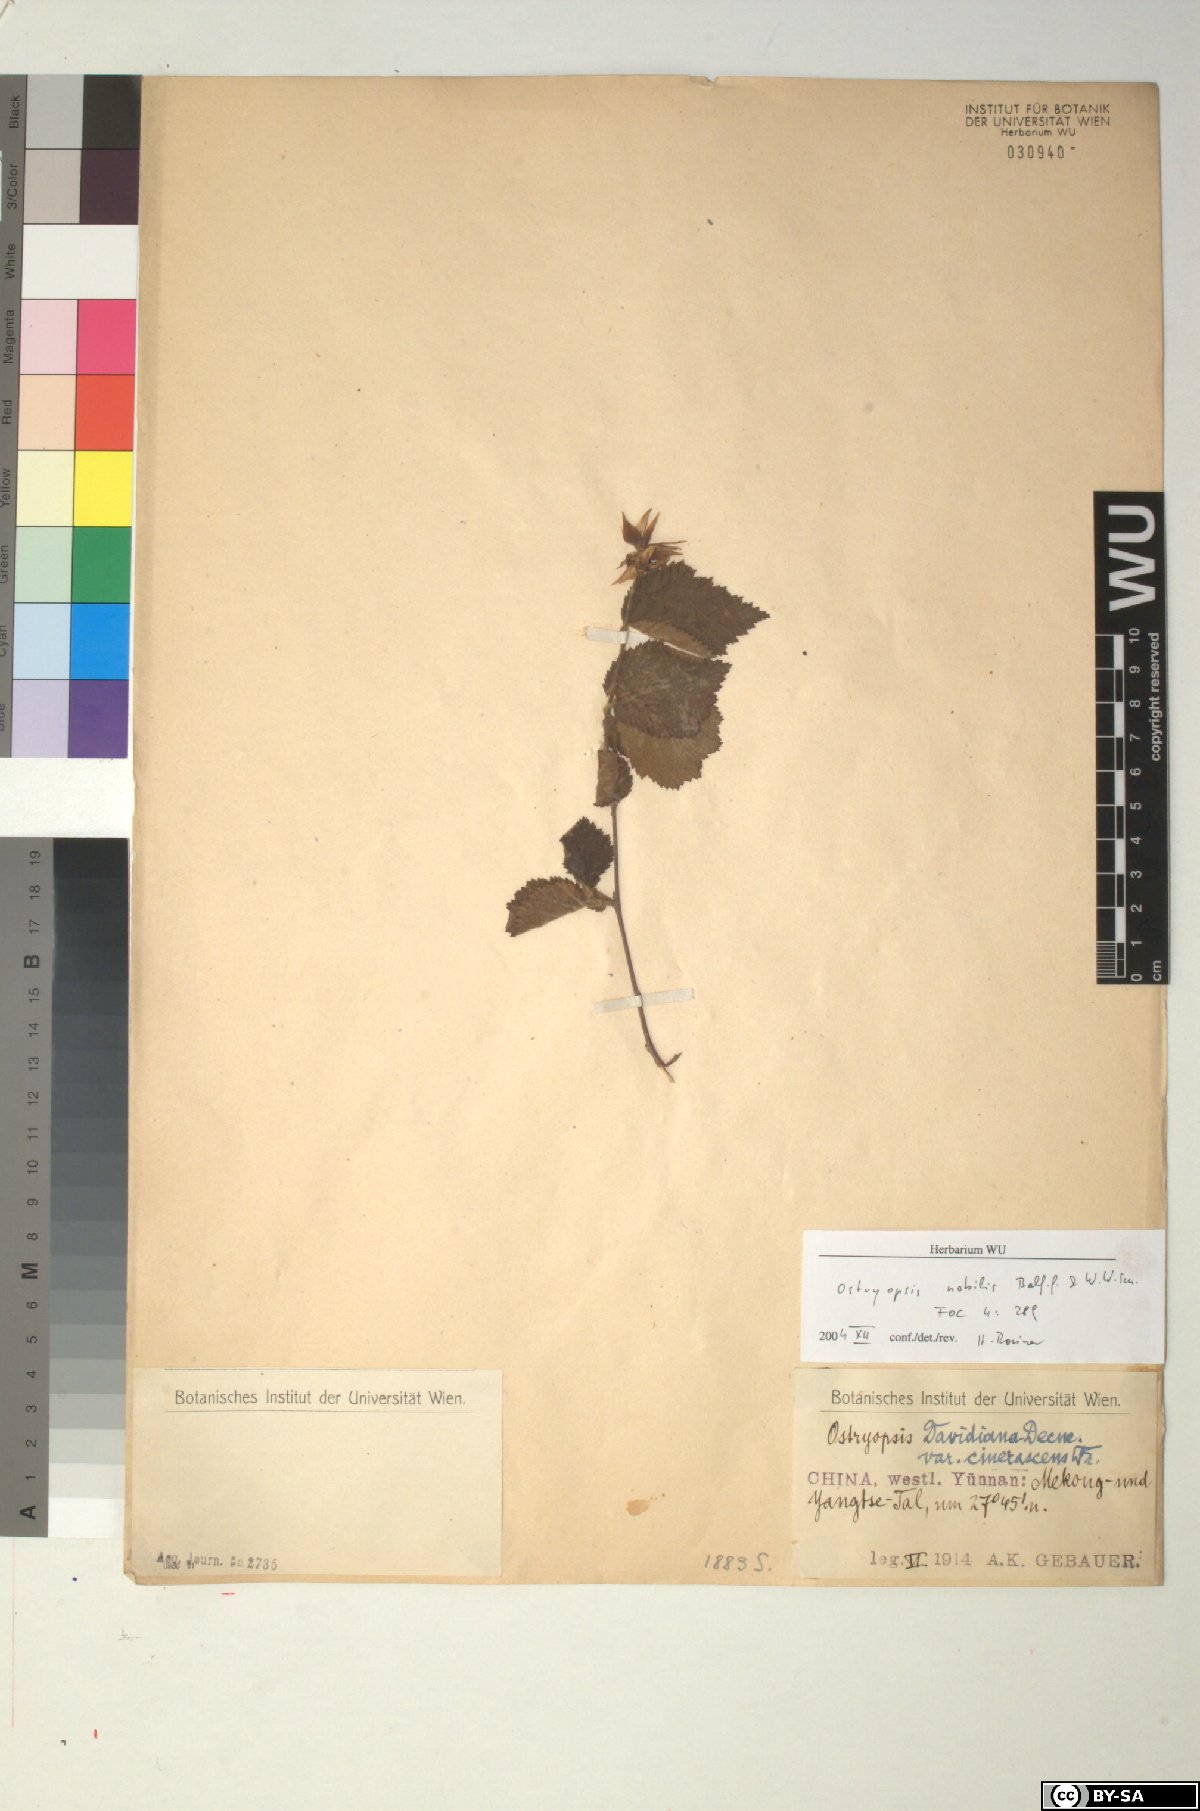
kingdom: Plantae
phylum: Tracheophyta
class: Magnoliopsida
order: Fagales
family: Betulaceae
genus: Ostryopsis
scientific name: Ostryopsis nobilis
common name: Yunnan tiger hazel
